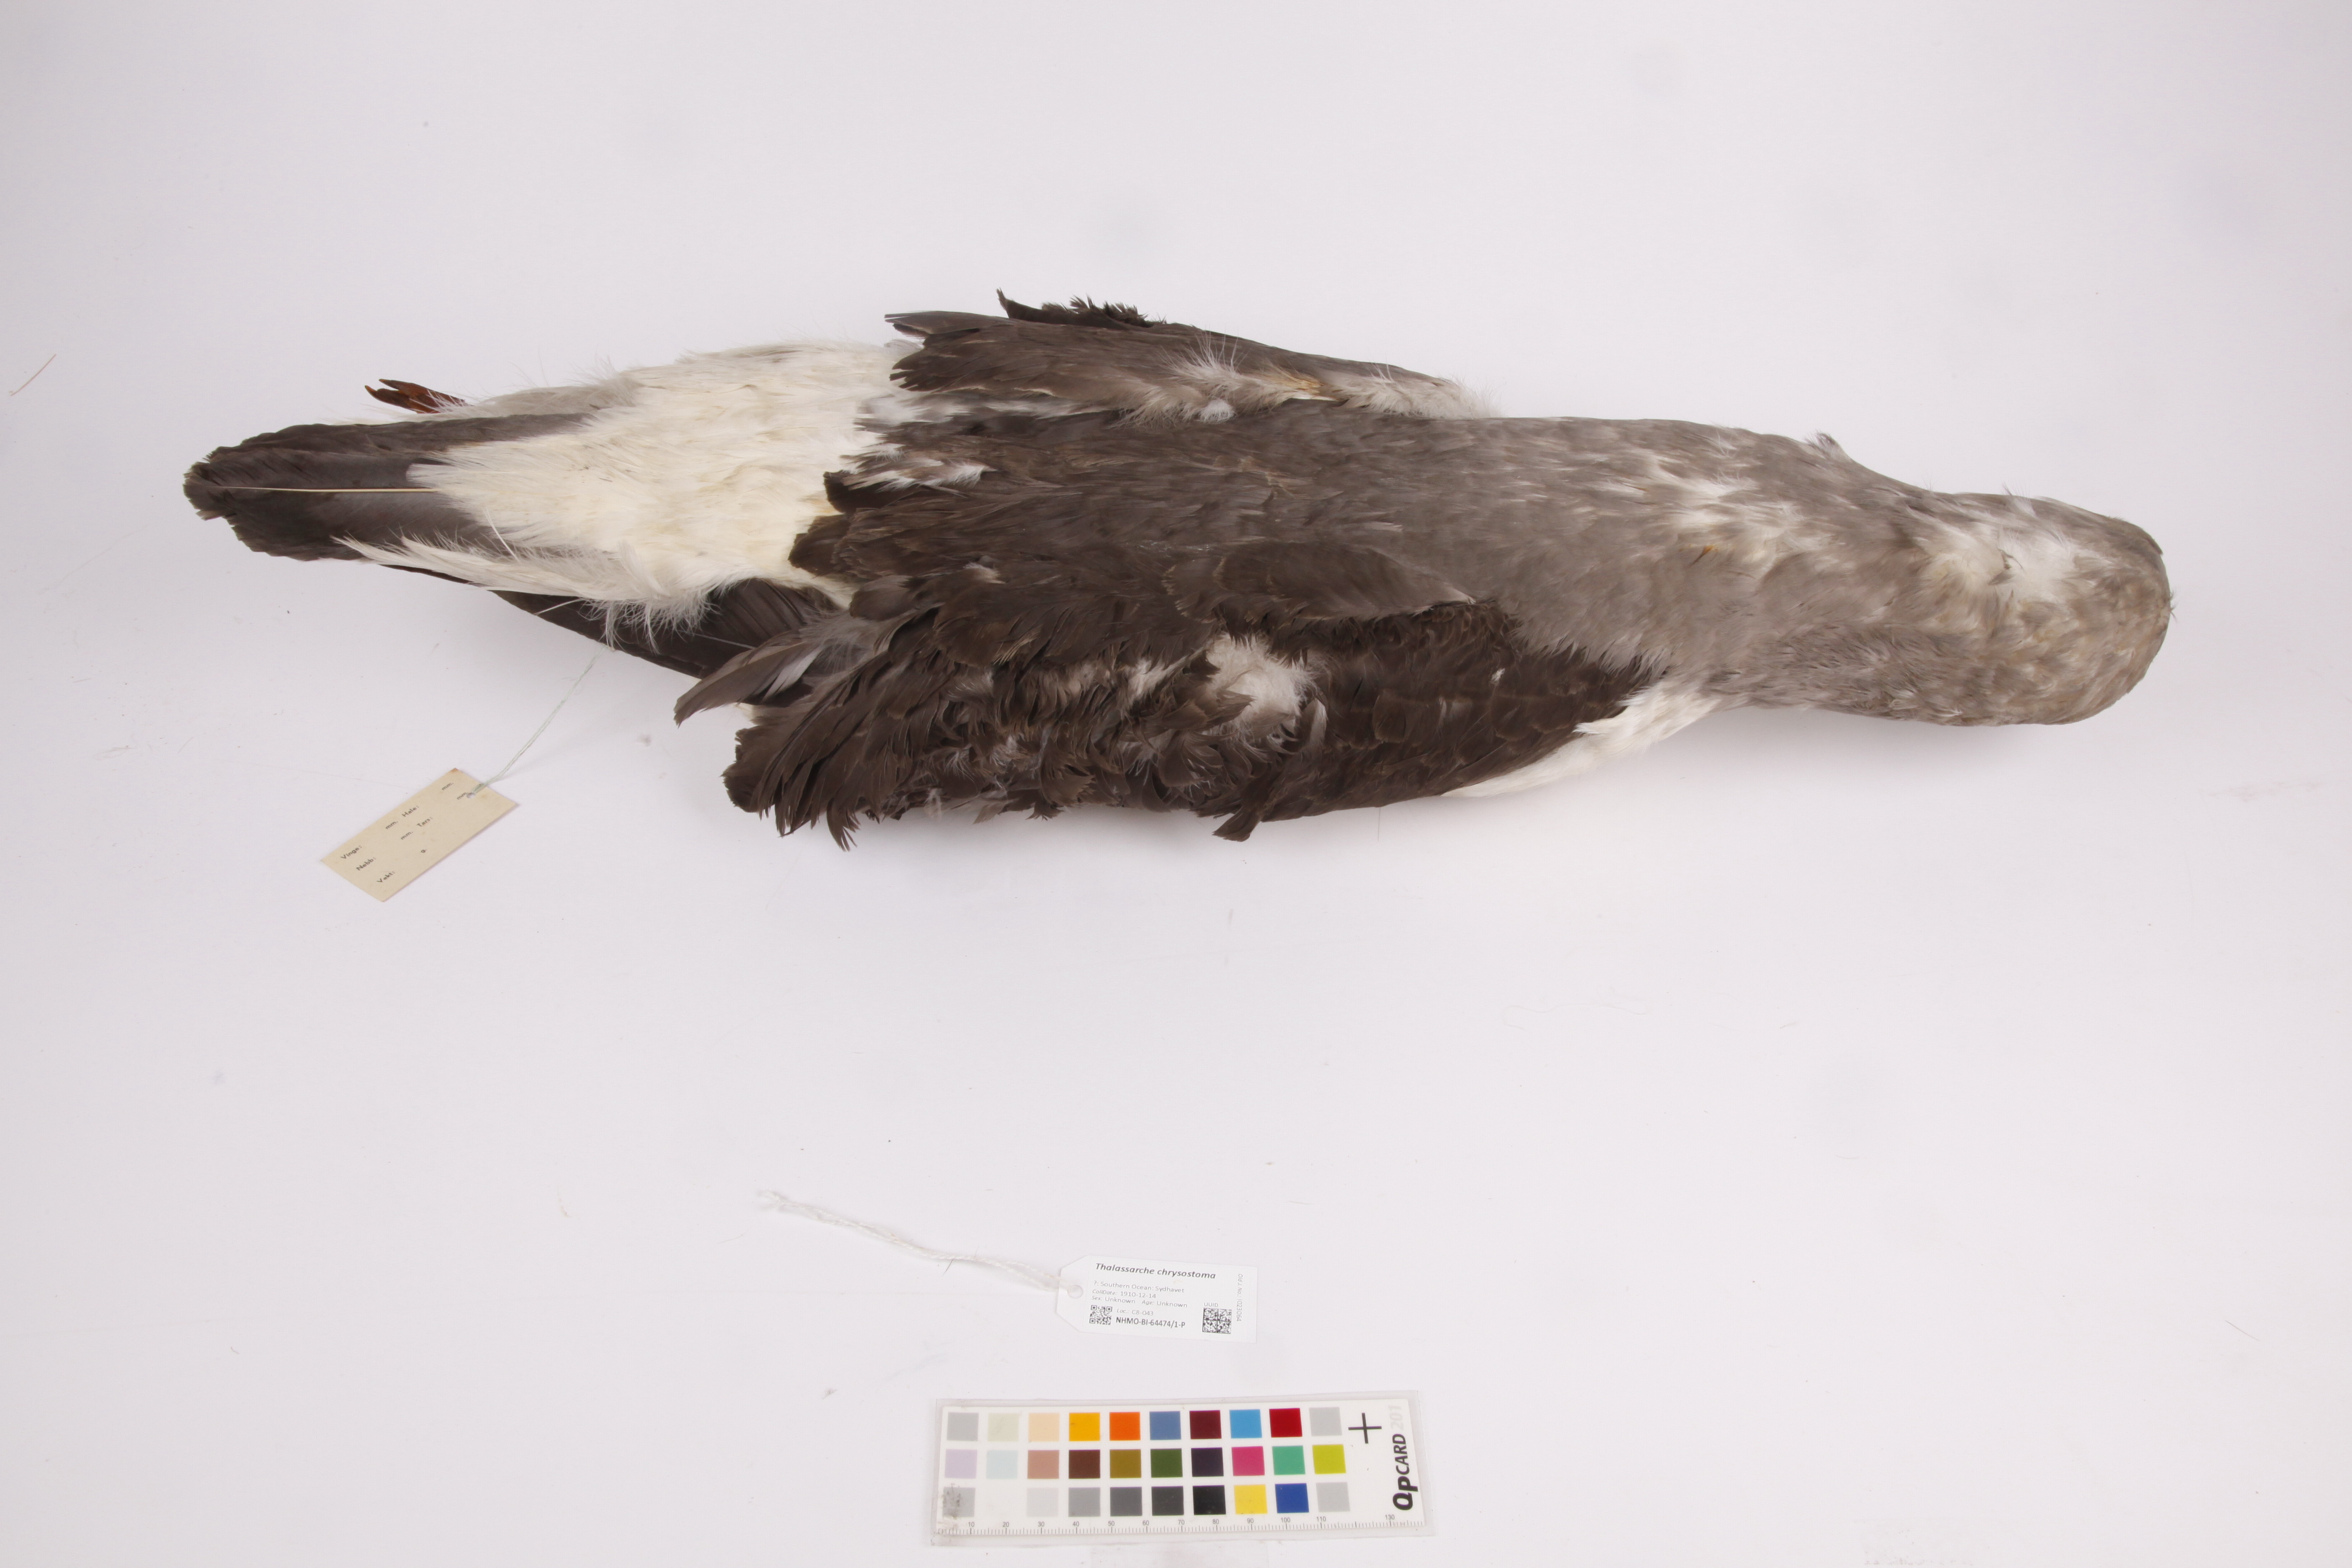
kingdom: Animalia
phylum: Chordata
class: Aves
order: Procellariiformes
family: Diomedeidae
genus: Thalassarche
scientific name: Thalassarche chrysostoma
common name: Grey-headed albatross
